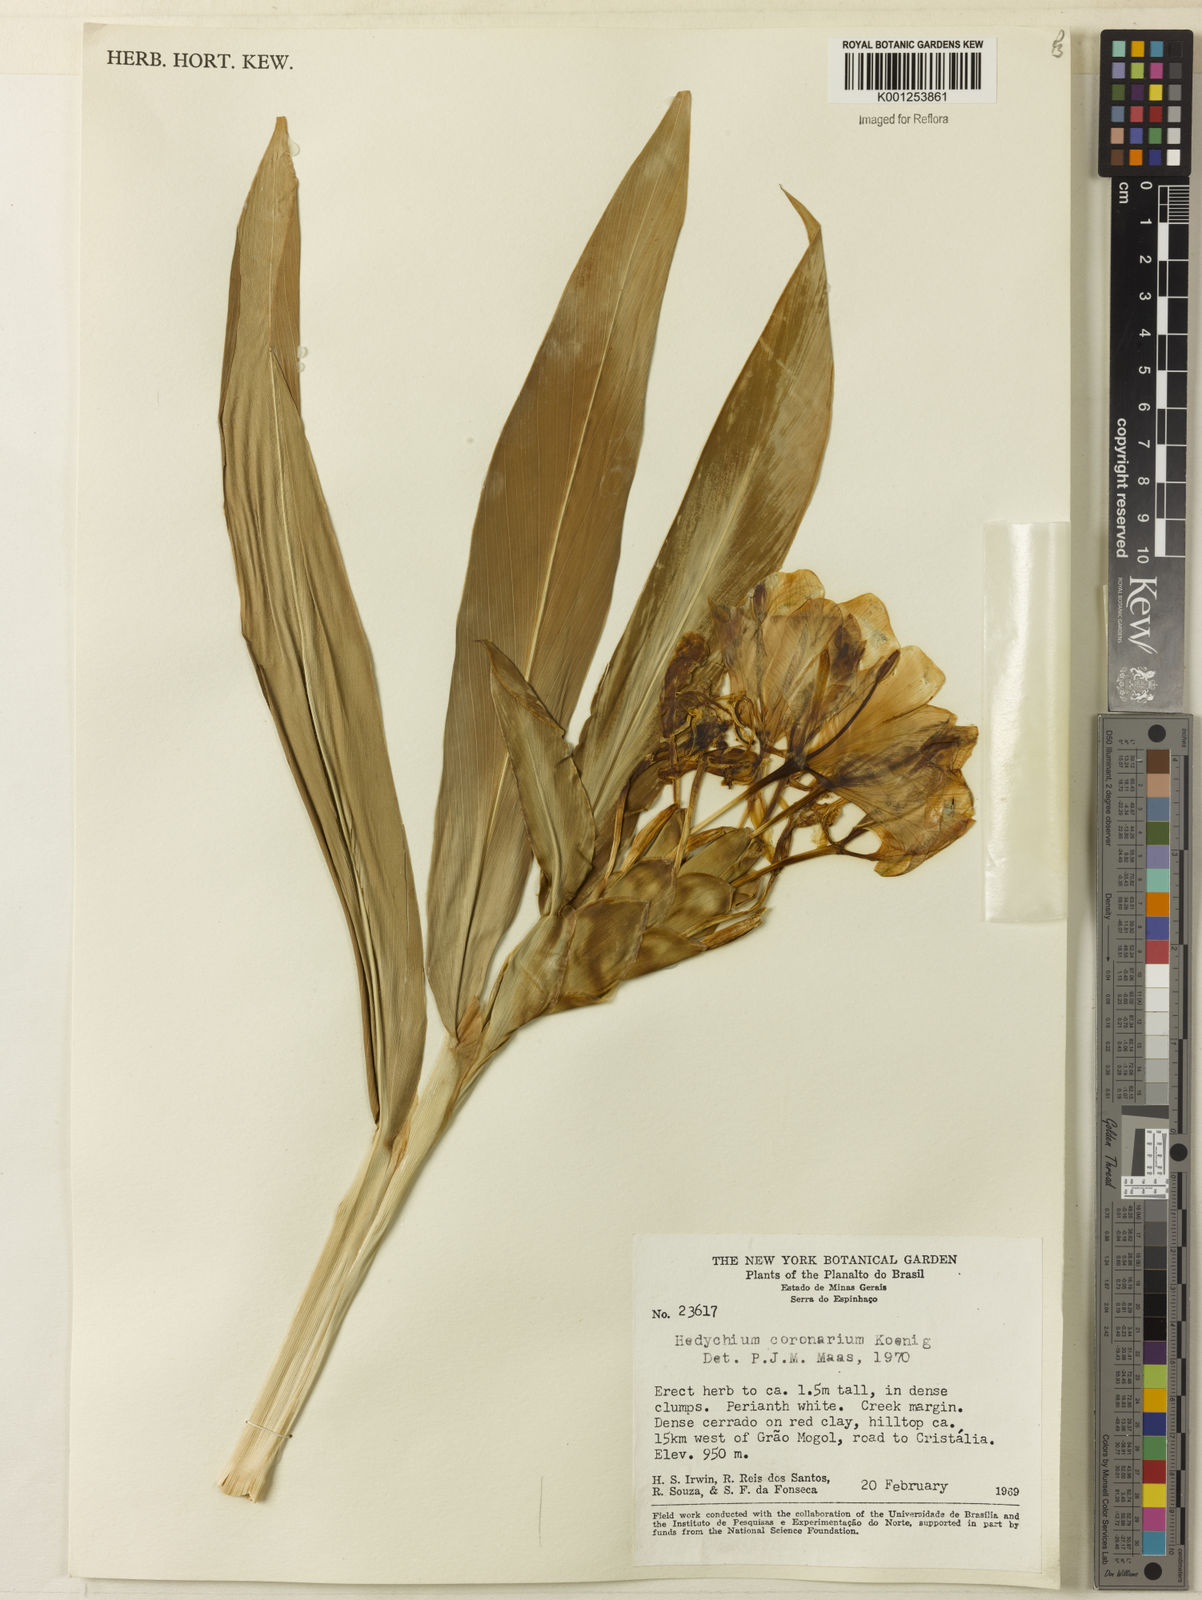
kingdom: Plantae
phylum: Tracheophyta
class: Liliopsida
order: Zingiberales
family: Zingiberaceae
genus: Hedychium
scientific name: Hedychium coronarium
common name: White garland-lily
